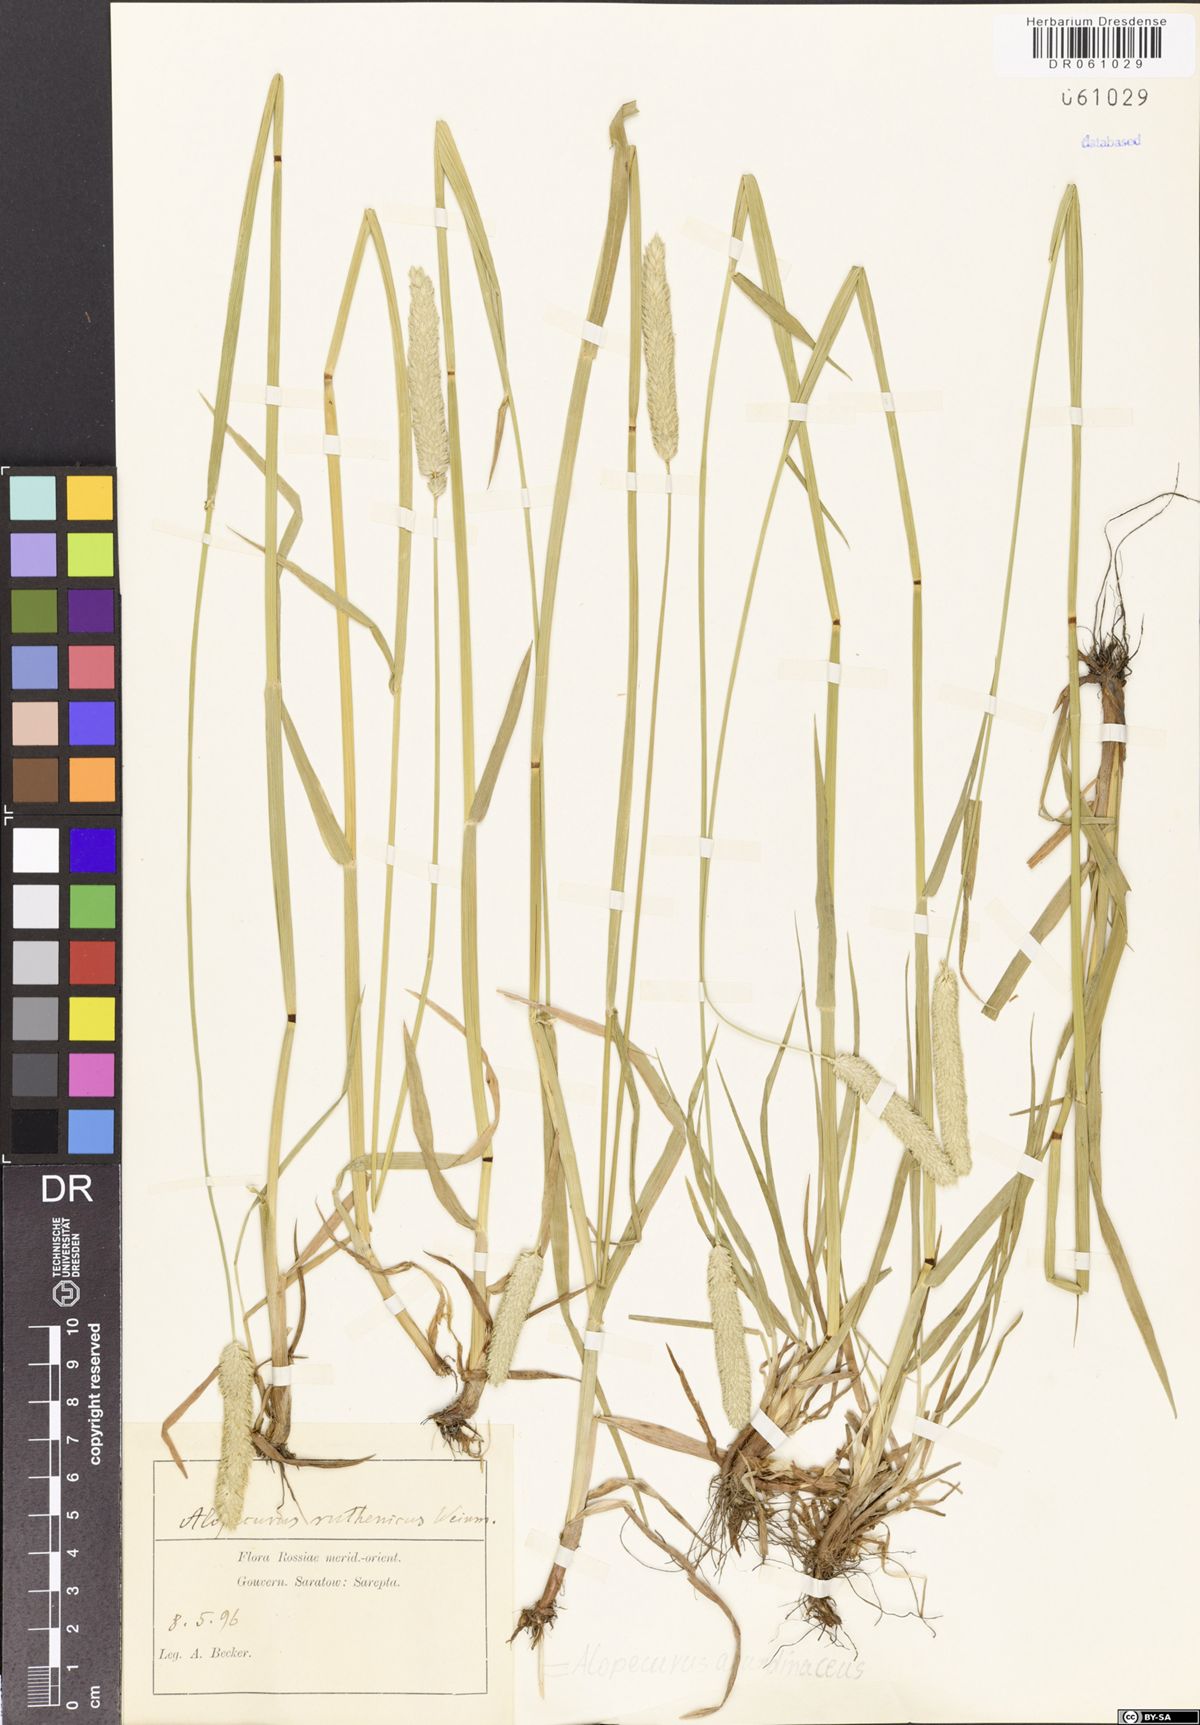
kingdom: Plantae
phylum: Tracheophyta
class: Liliopsida
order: Poales
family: Poaceae
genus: Alopecurus
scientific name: Alopecurus arundinaceus
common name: Creeping meadow foxtail
